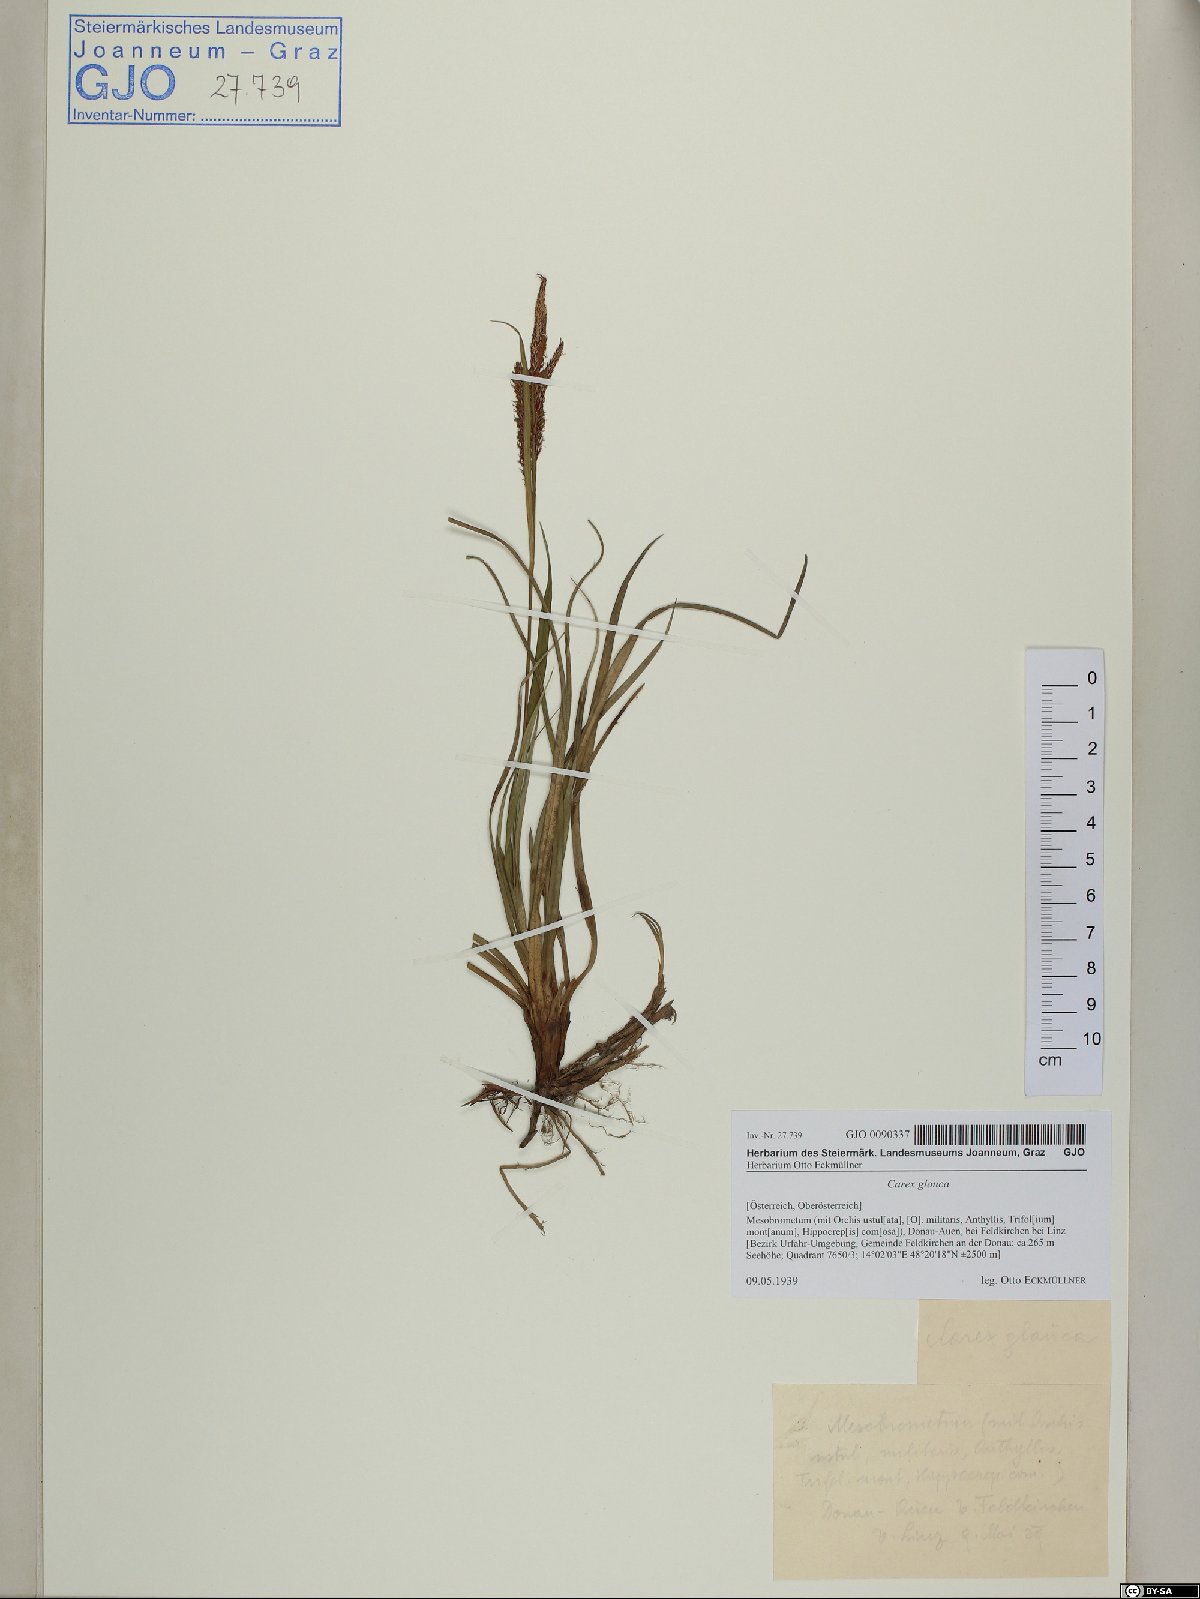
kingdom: Plantae
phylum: Tracheophyta
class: Liliopsida
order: Poales
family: Cyperaceae
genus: Carex
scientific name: Carex flacca
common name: Glaucous sedge
